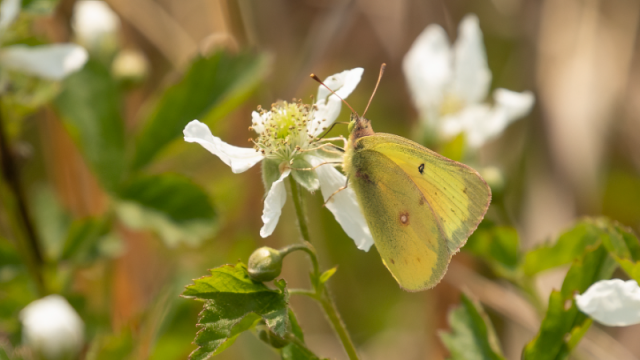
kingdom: Animalia
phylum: Arthropoda
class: Insecta
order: Lepidoptera
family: Pieridae
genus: Colias
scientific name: Colias eurytheme
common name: Orange Sulphur
